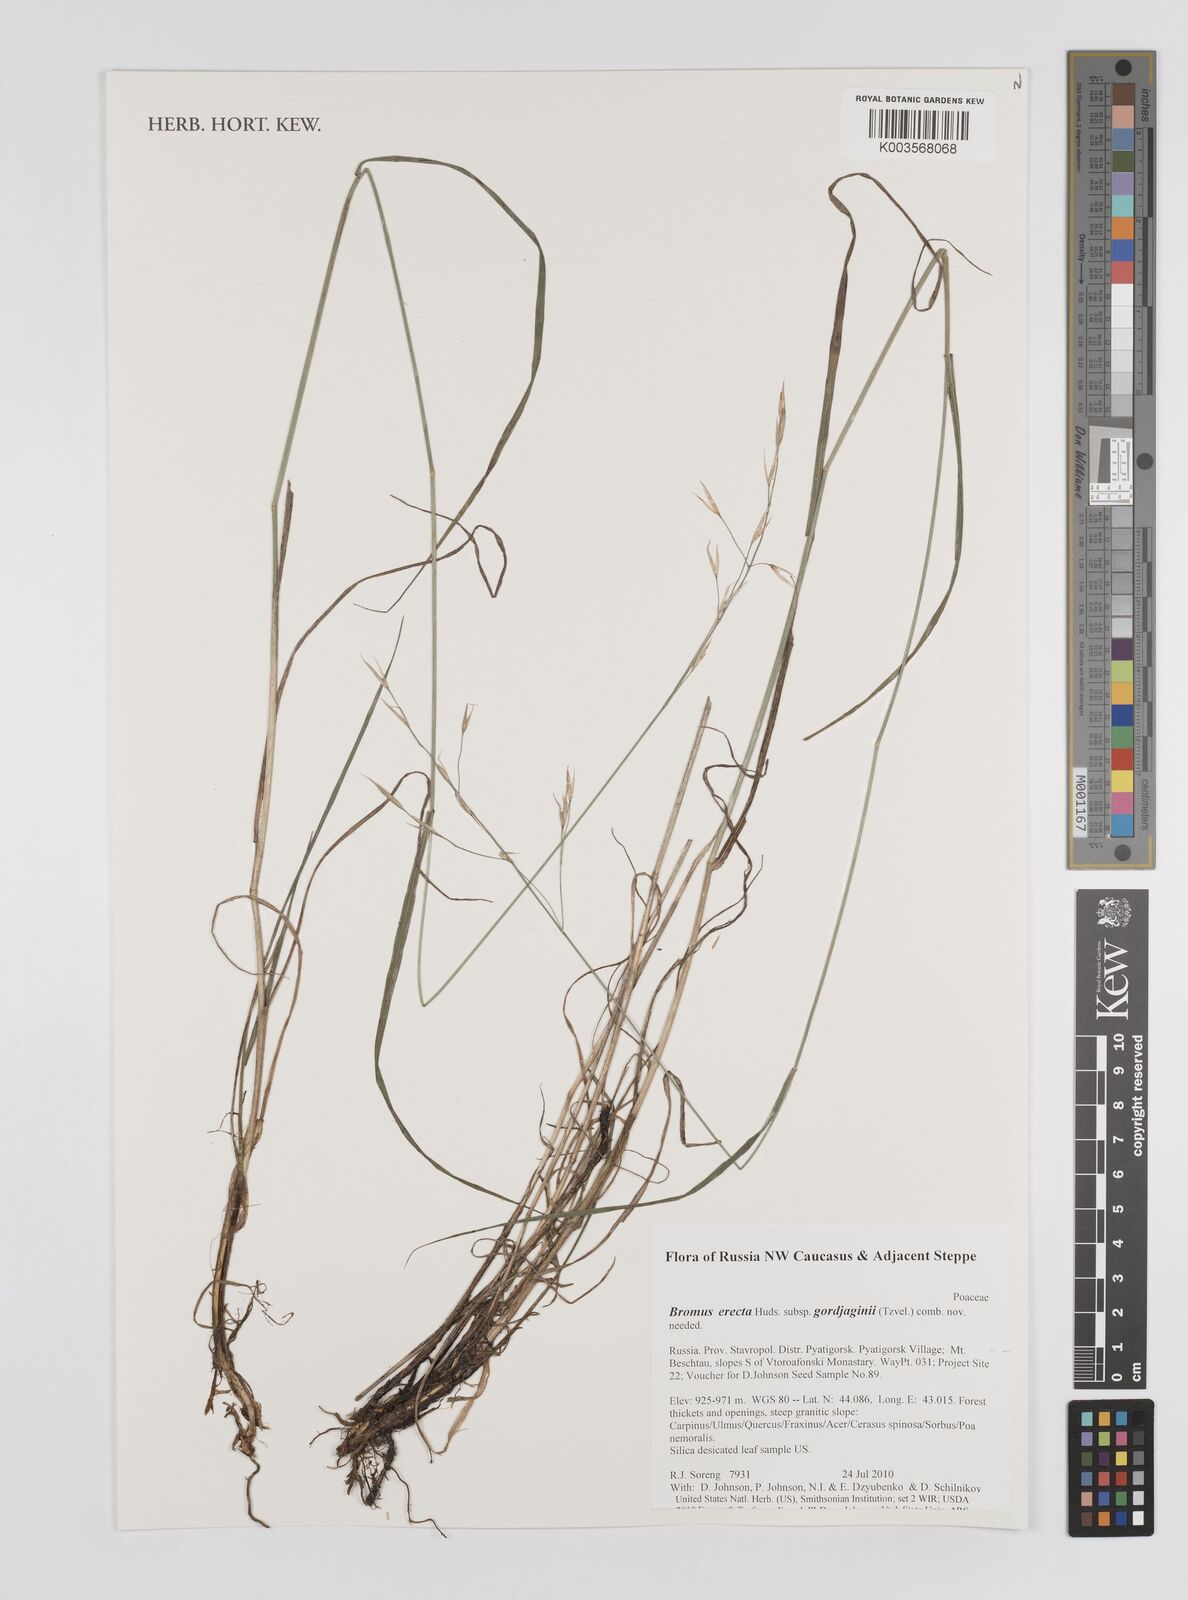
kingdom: Plantae
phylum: Tracheophyta
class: Liliopsida
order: Poales
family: Poaceae
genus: Bromus
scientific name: Bromus erectus
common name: Erect brome
